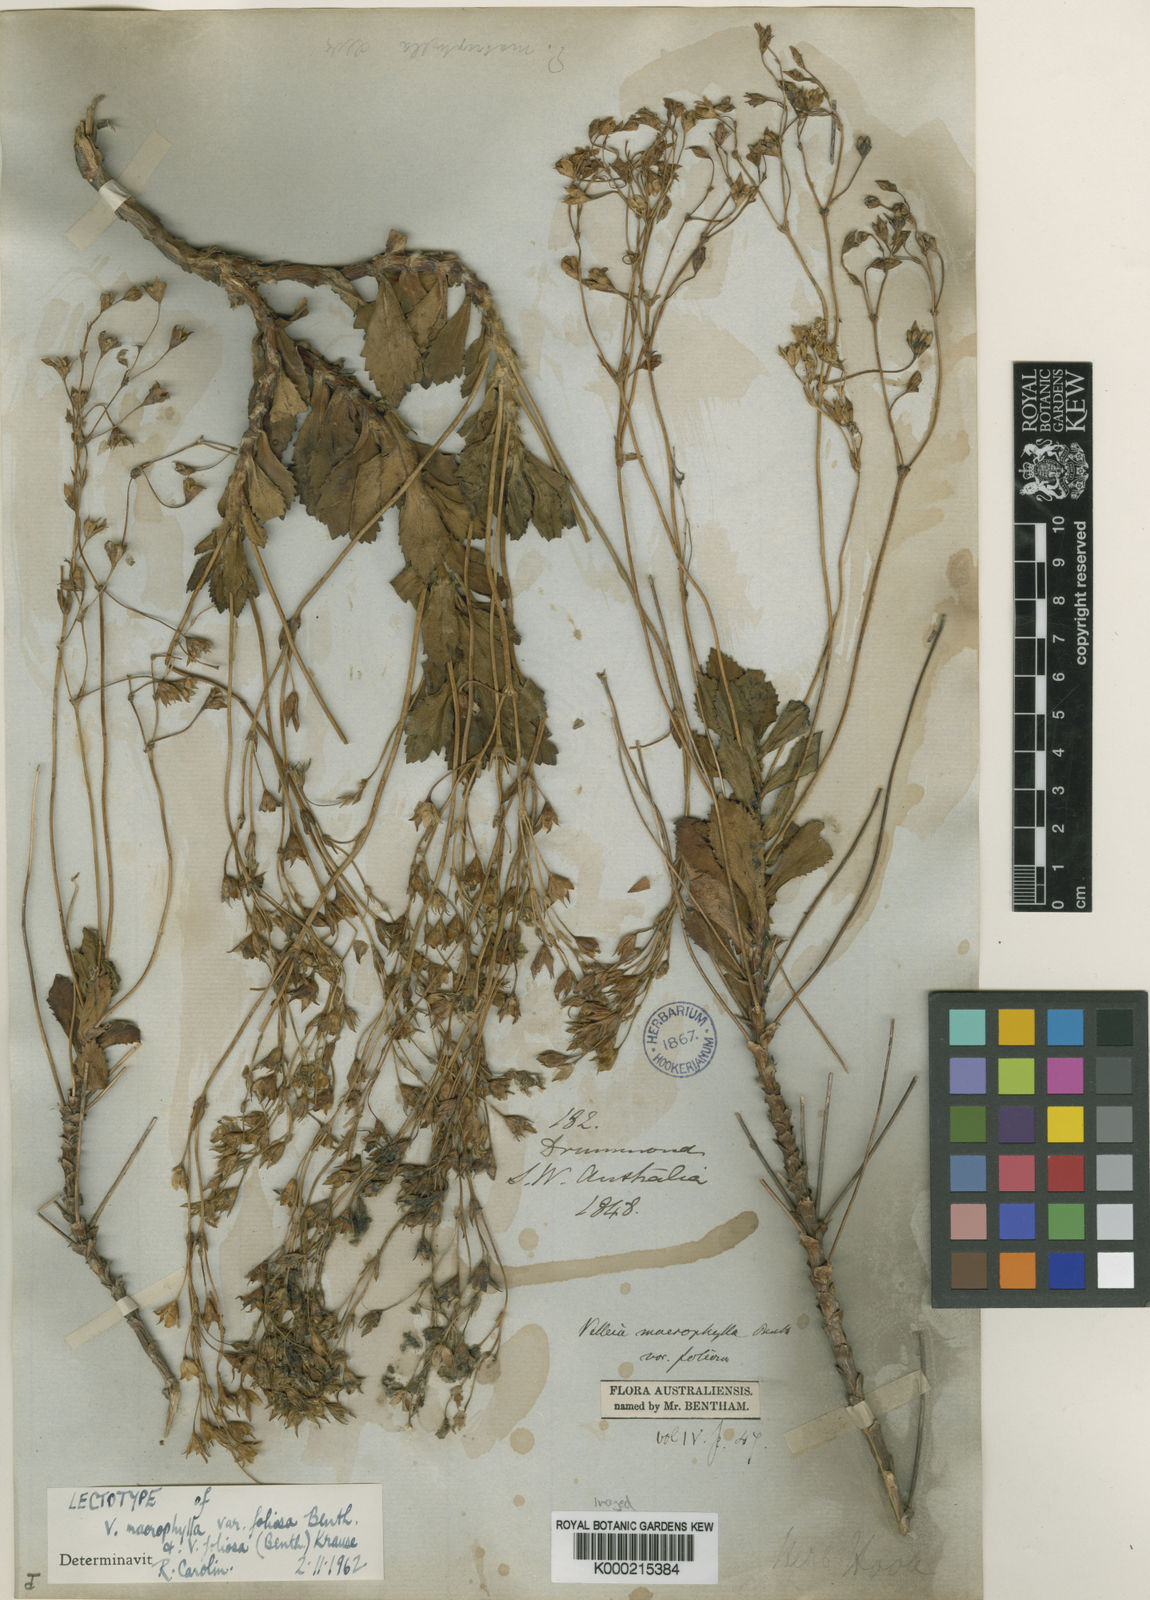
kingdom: Plantae
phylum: Tracheophyta
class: Magnoliopsida
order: Asterales
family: Goodeniaceae
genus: Goodenia
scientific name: Goodenia brendannarum
